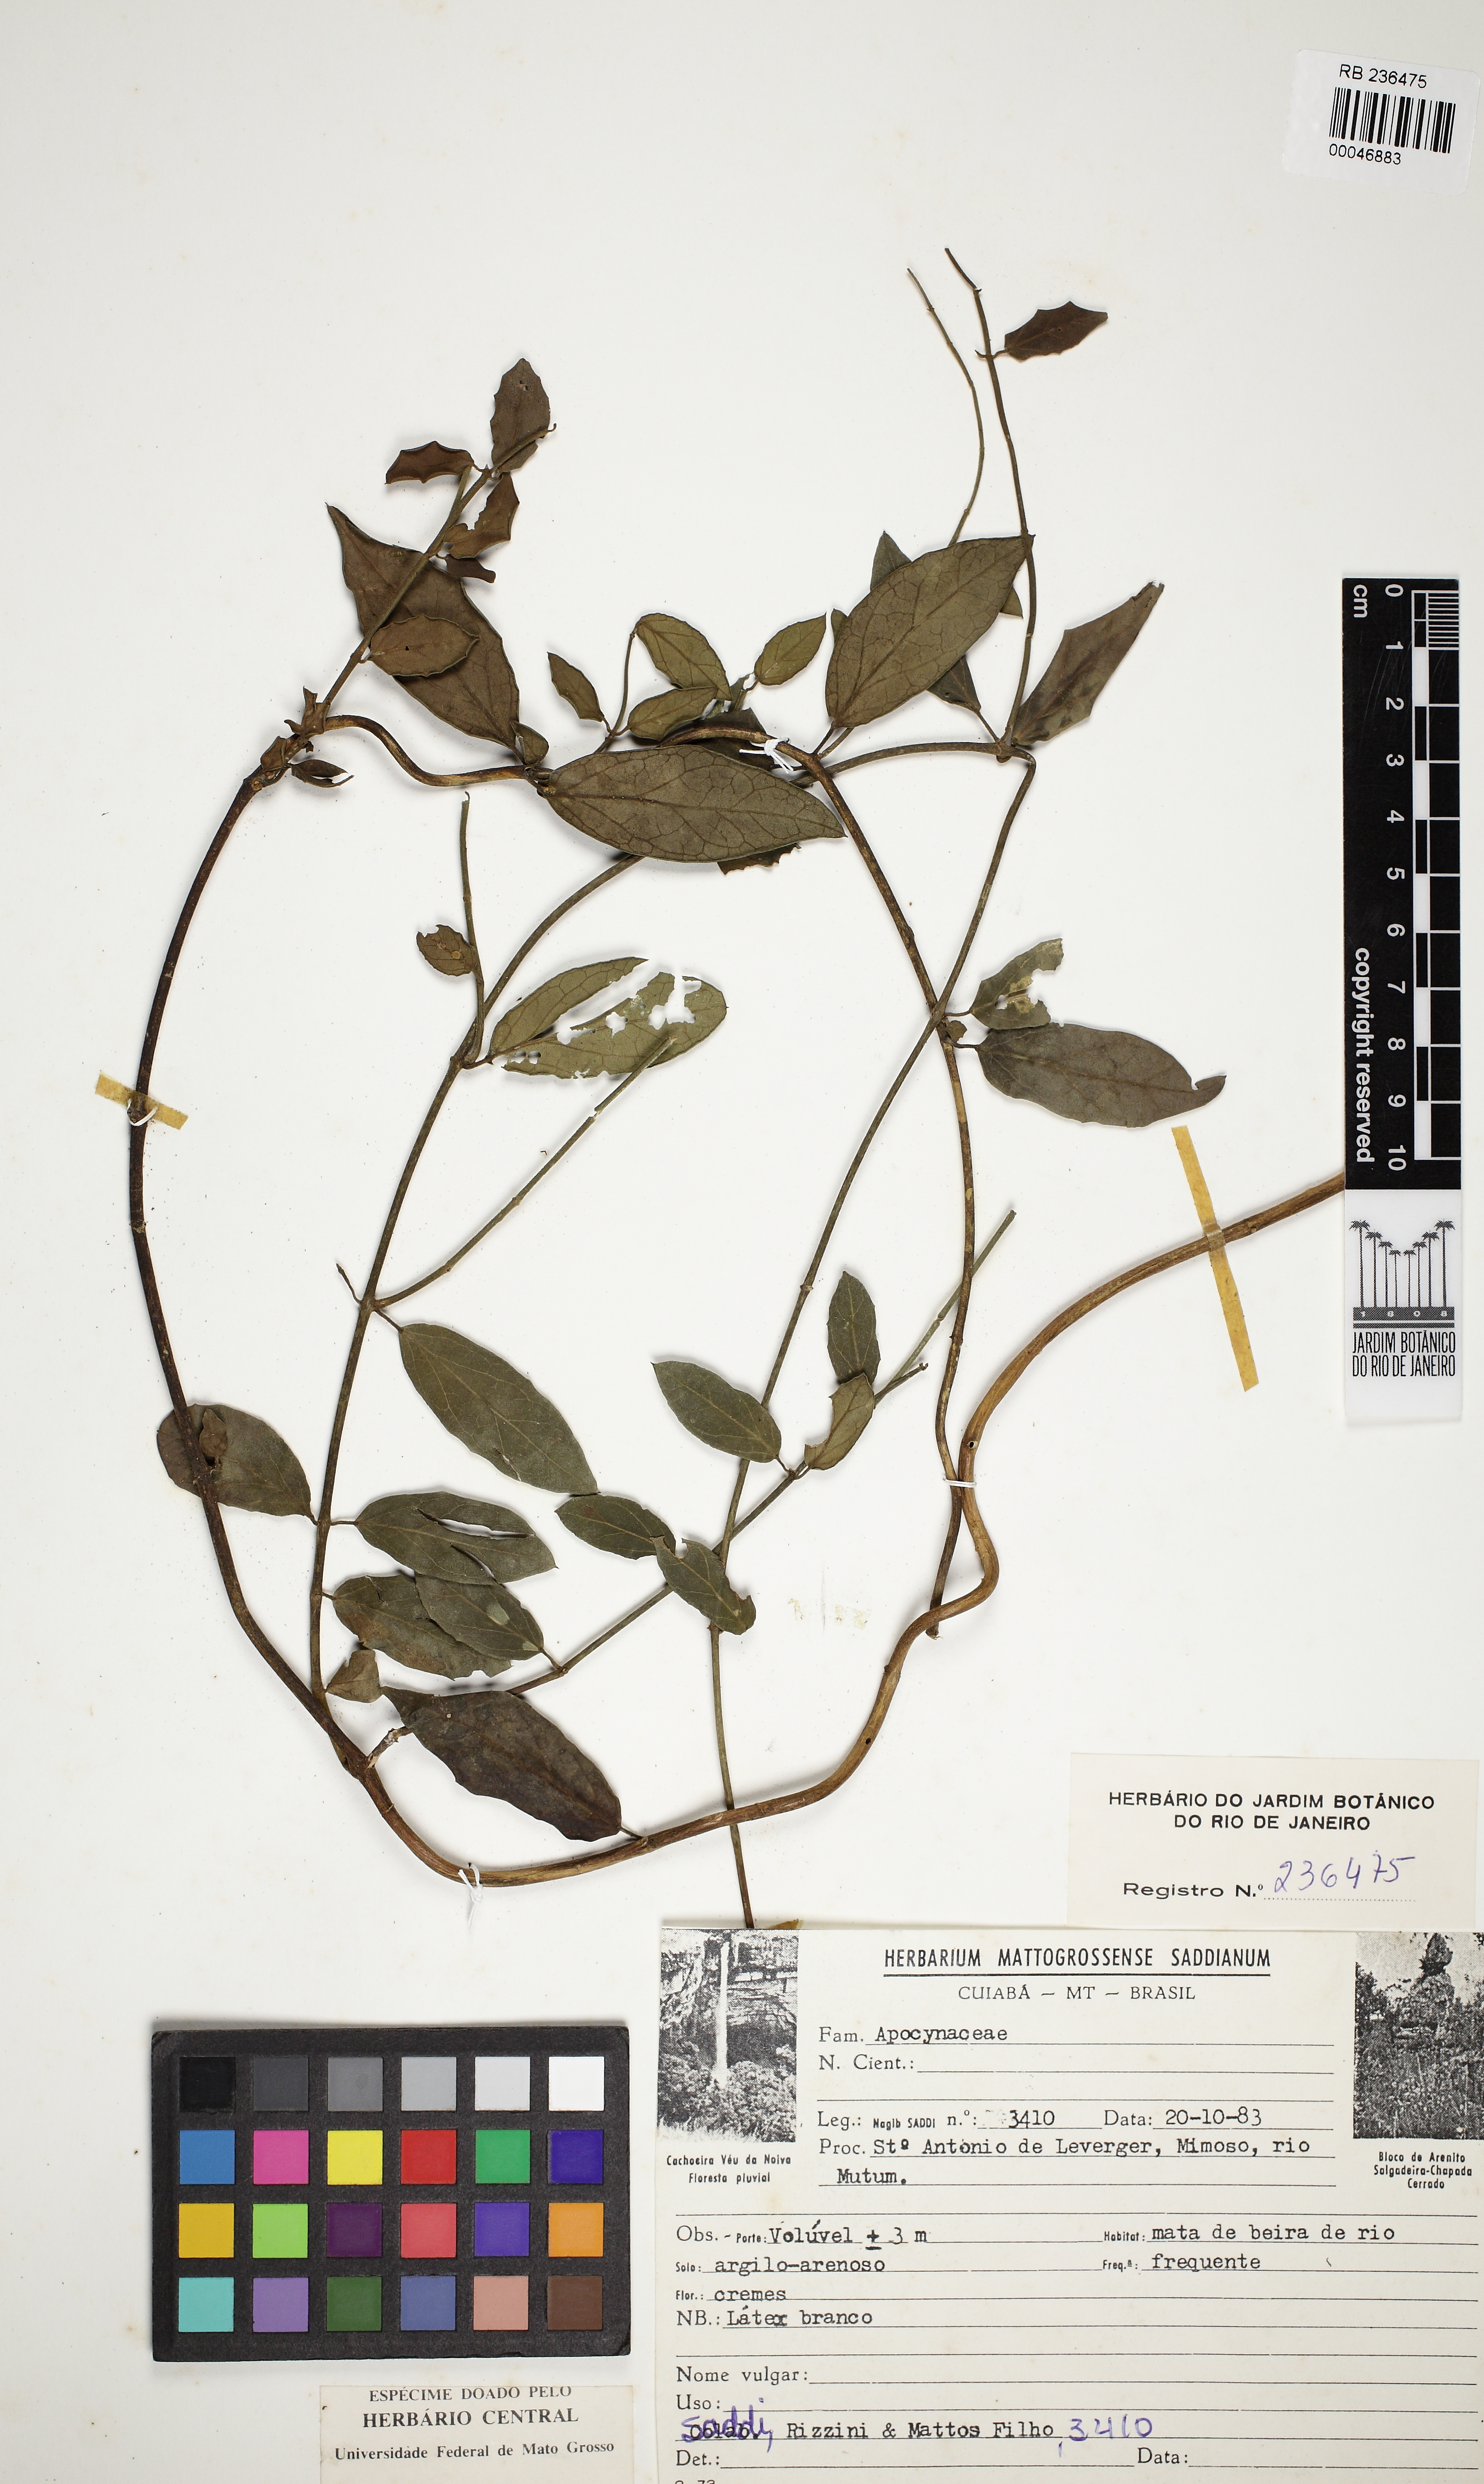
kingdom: Plantae
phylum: Tracheophyta
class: Magnoliopsida
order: Gentianales
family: Apocynaceae
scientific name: Apocynaceae
